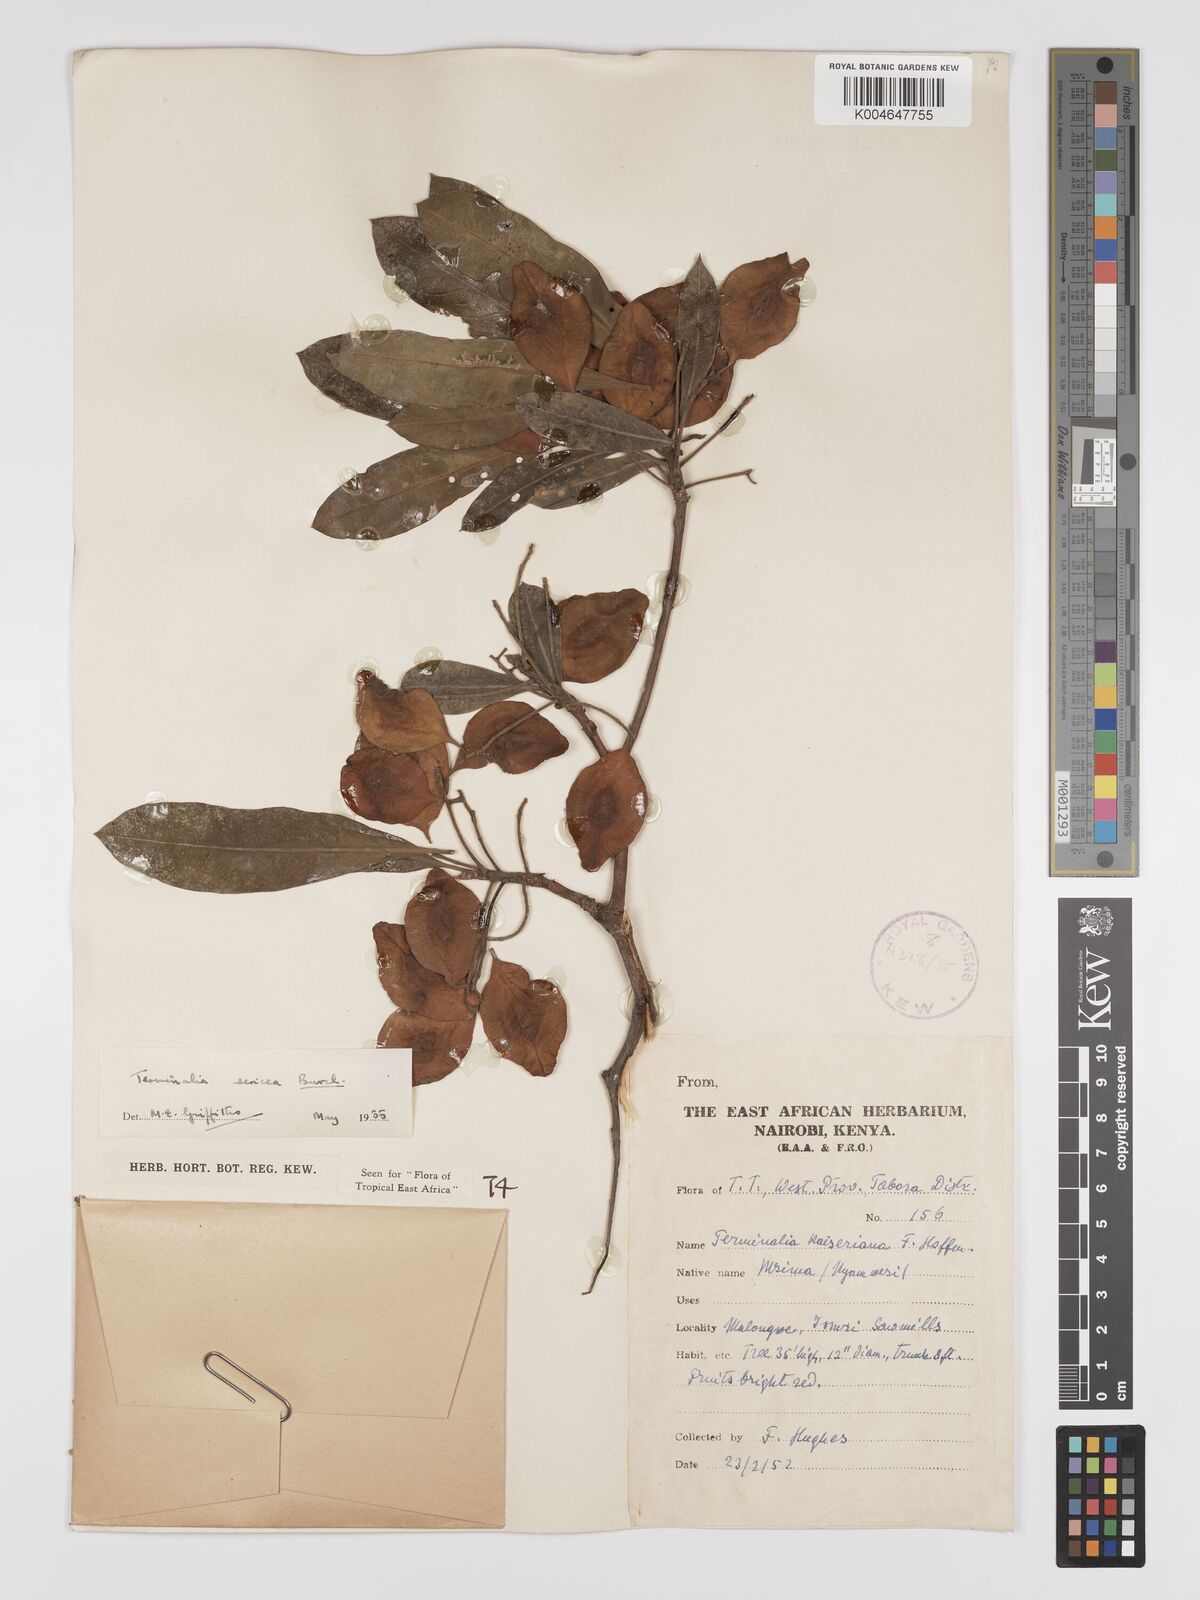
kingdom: Plantae
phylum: Tracheophyta
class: Magnoliopsida
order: Myrtales
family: Combretaceae
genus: Terminalia
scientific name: Terminalia
